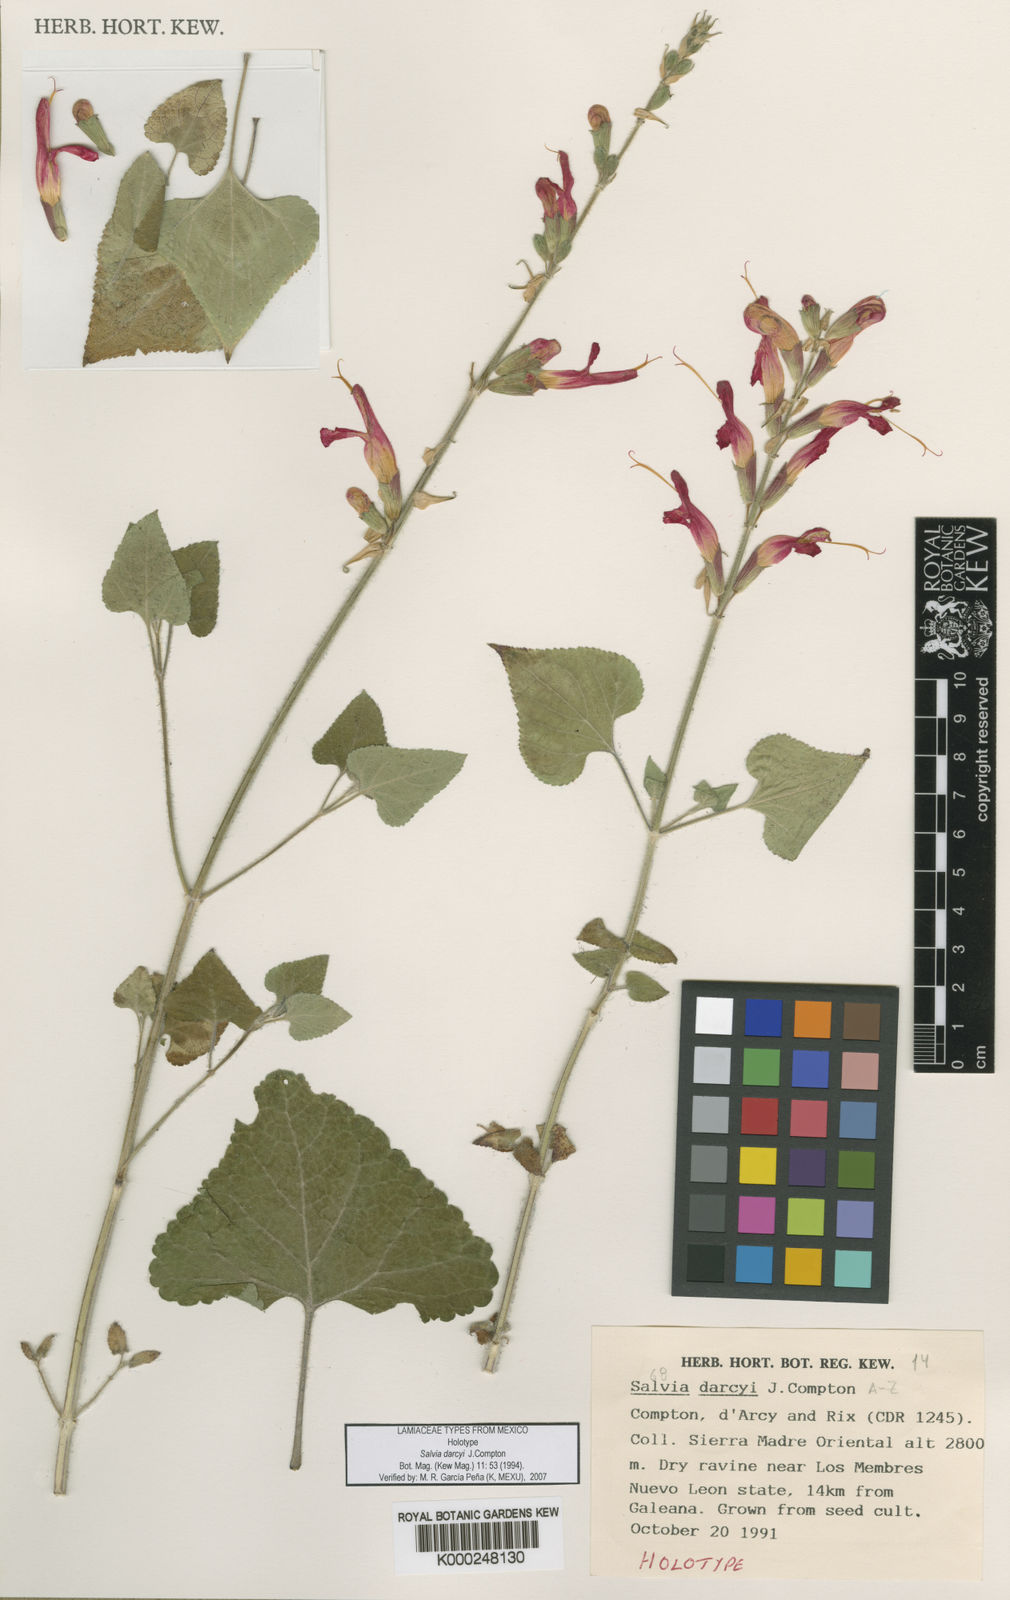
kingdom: Plantae
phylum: Tracheophyta
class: Magnoliopsida
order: Lamiales
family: Lamiaceae
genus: Salvia
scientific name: Salvia darcyi
